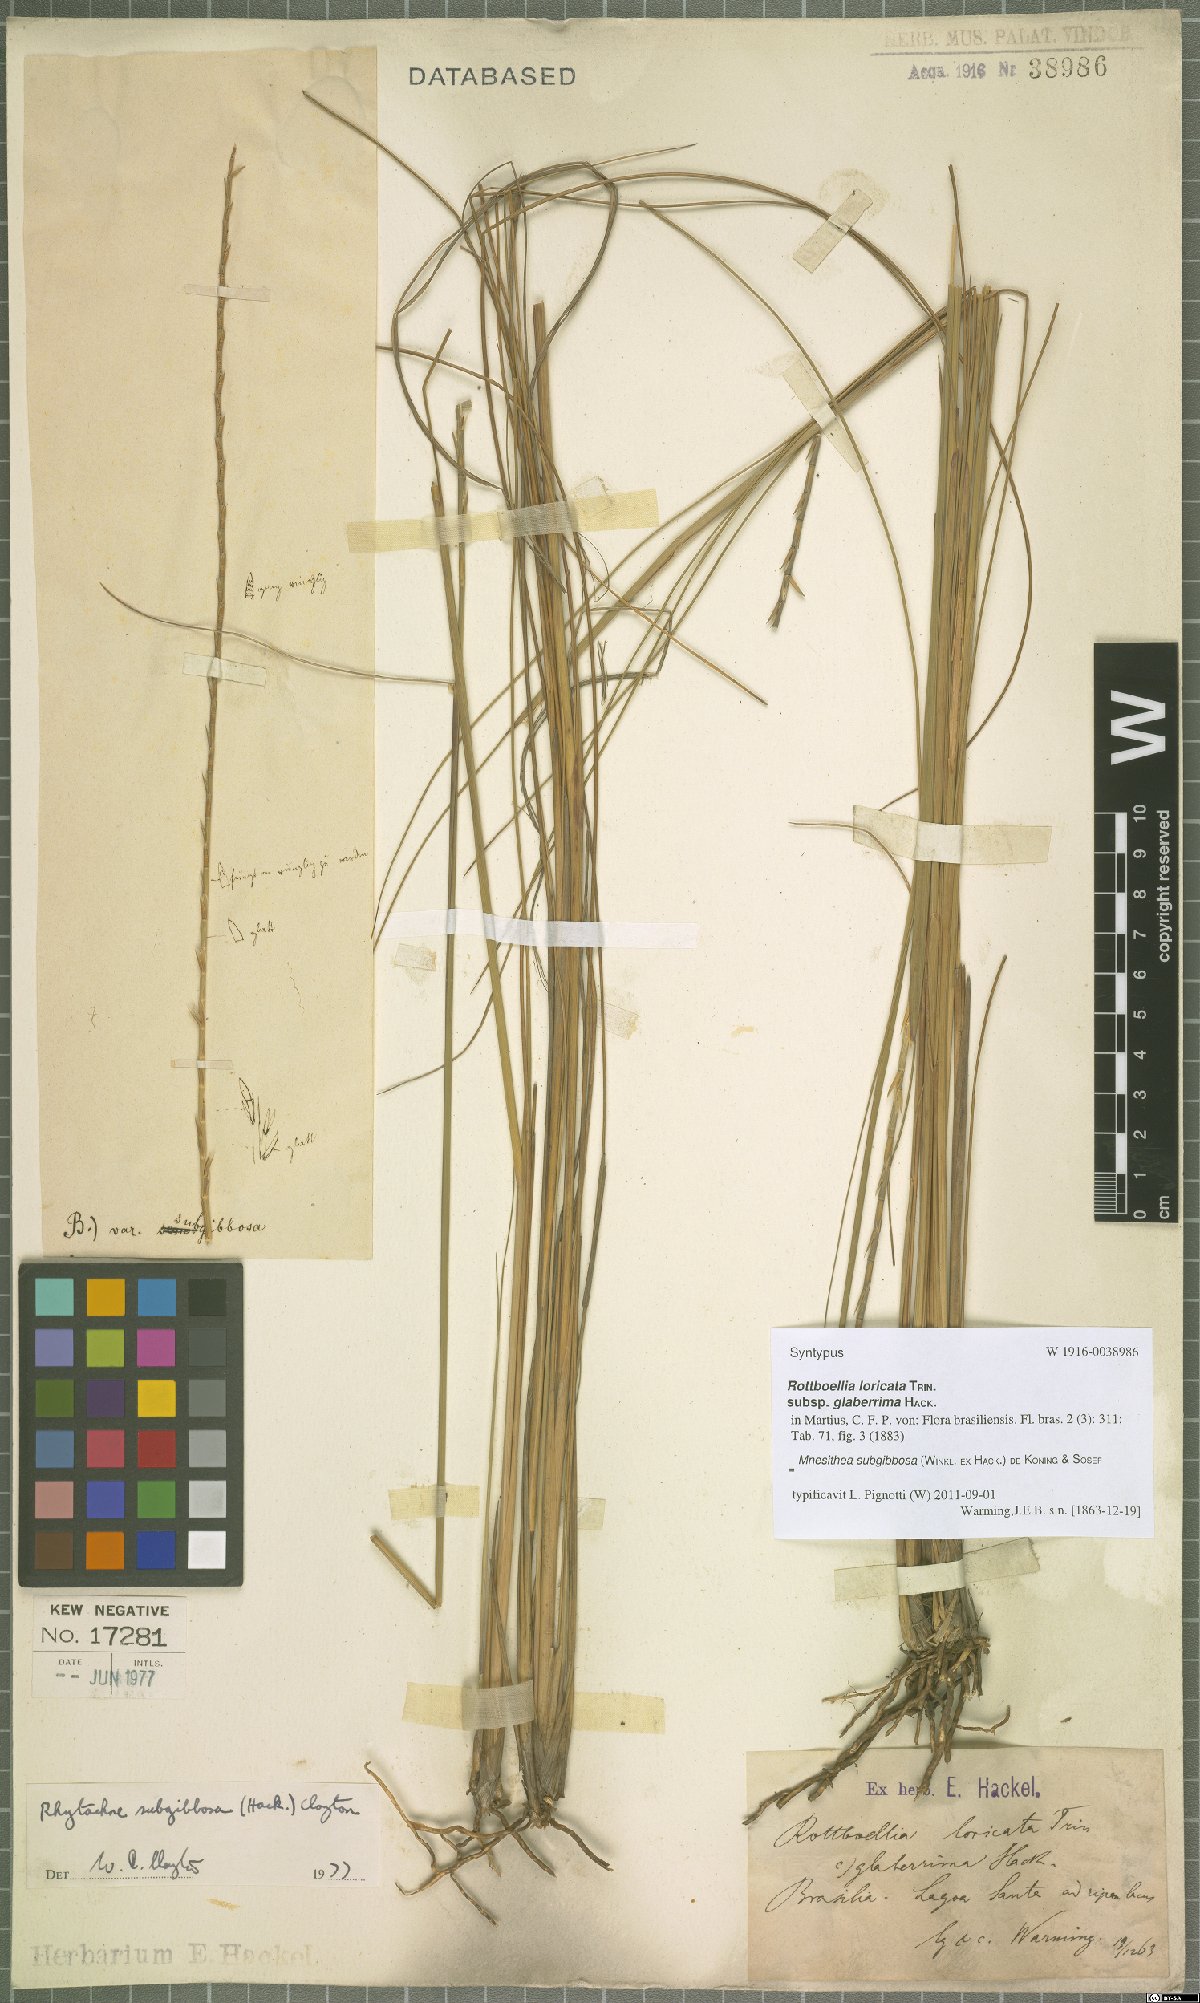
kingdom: Plantae
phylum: Tracheophyta
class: Liliopsida
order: Poales
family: Poaceae
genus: Rhytachne
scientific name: Rhytachne subgibbosa
